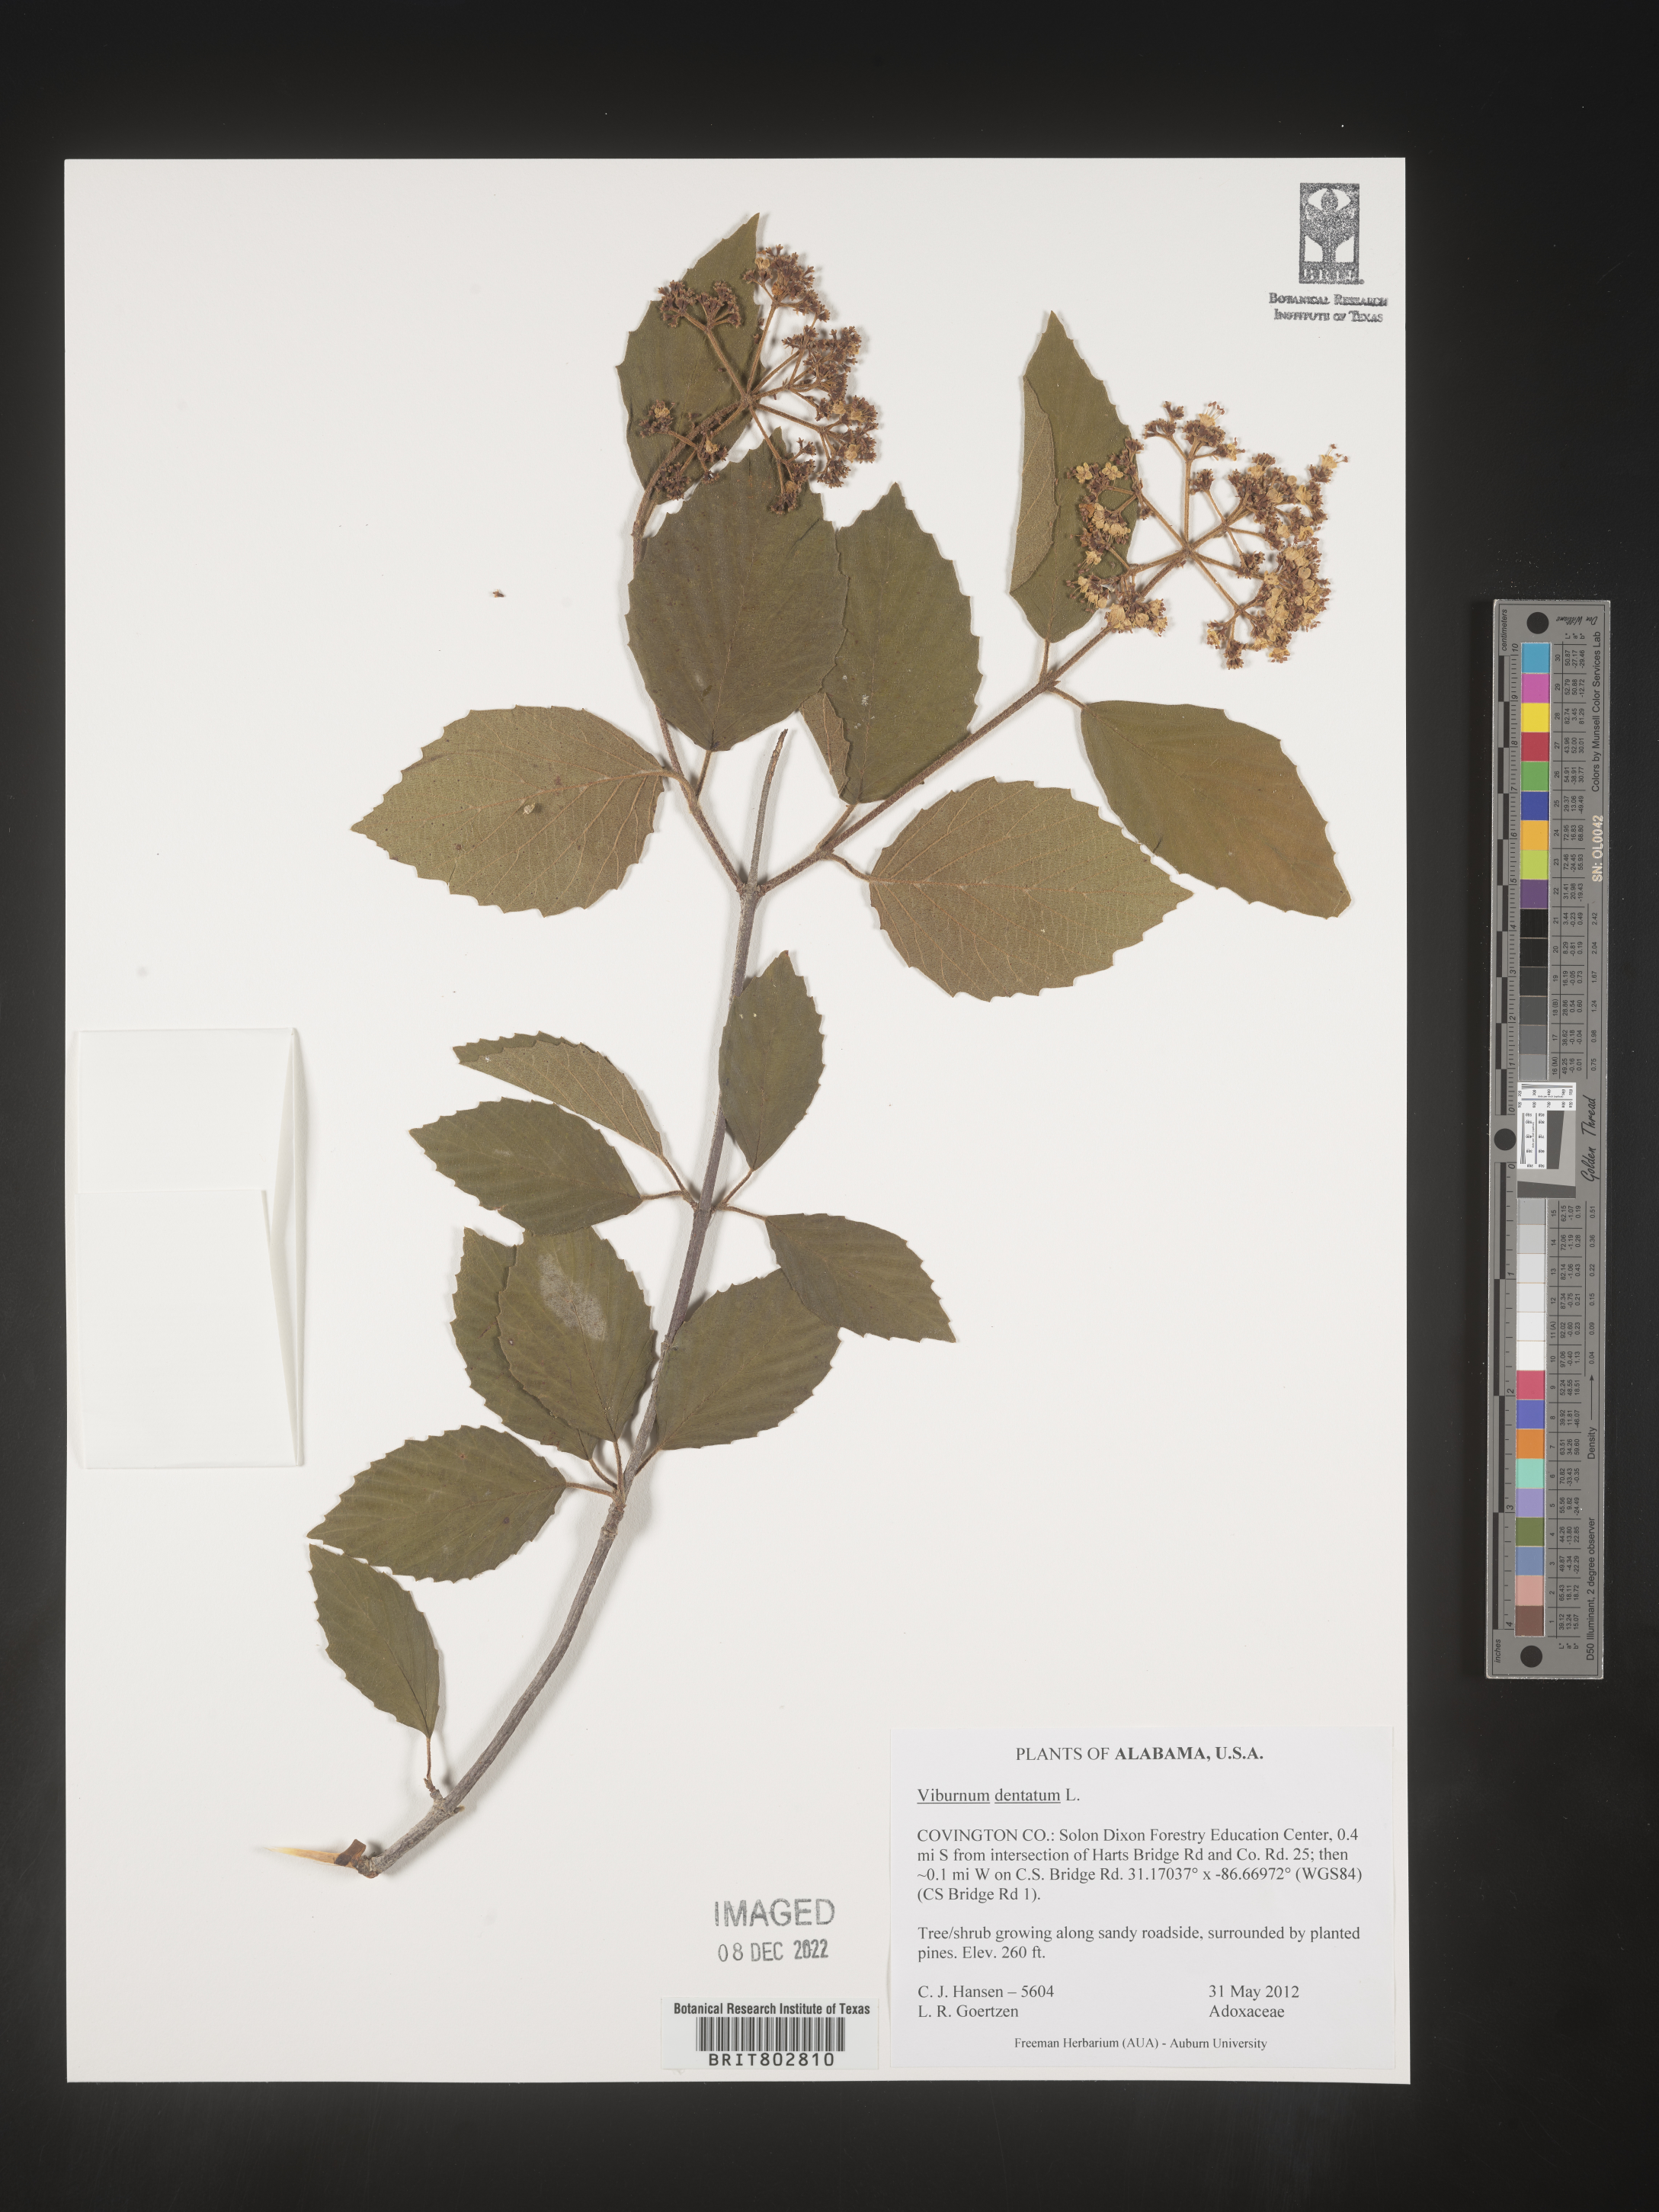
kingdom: Plantae
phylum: Tracheophyta
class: Magnoliopsida
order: Dipsacales
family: Viburnaceae
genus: Viburnum
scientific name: Viburnum dentatum
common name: Arrow-wood
